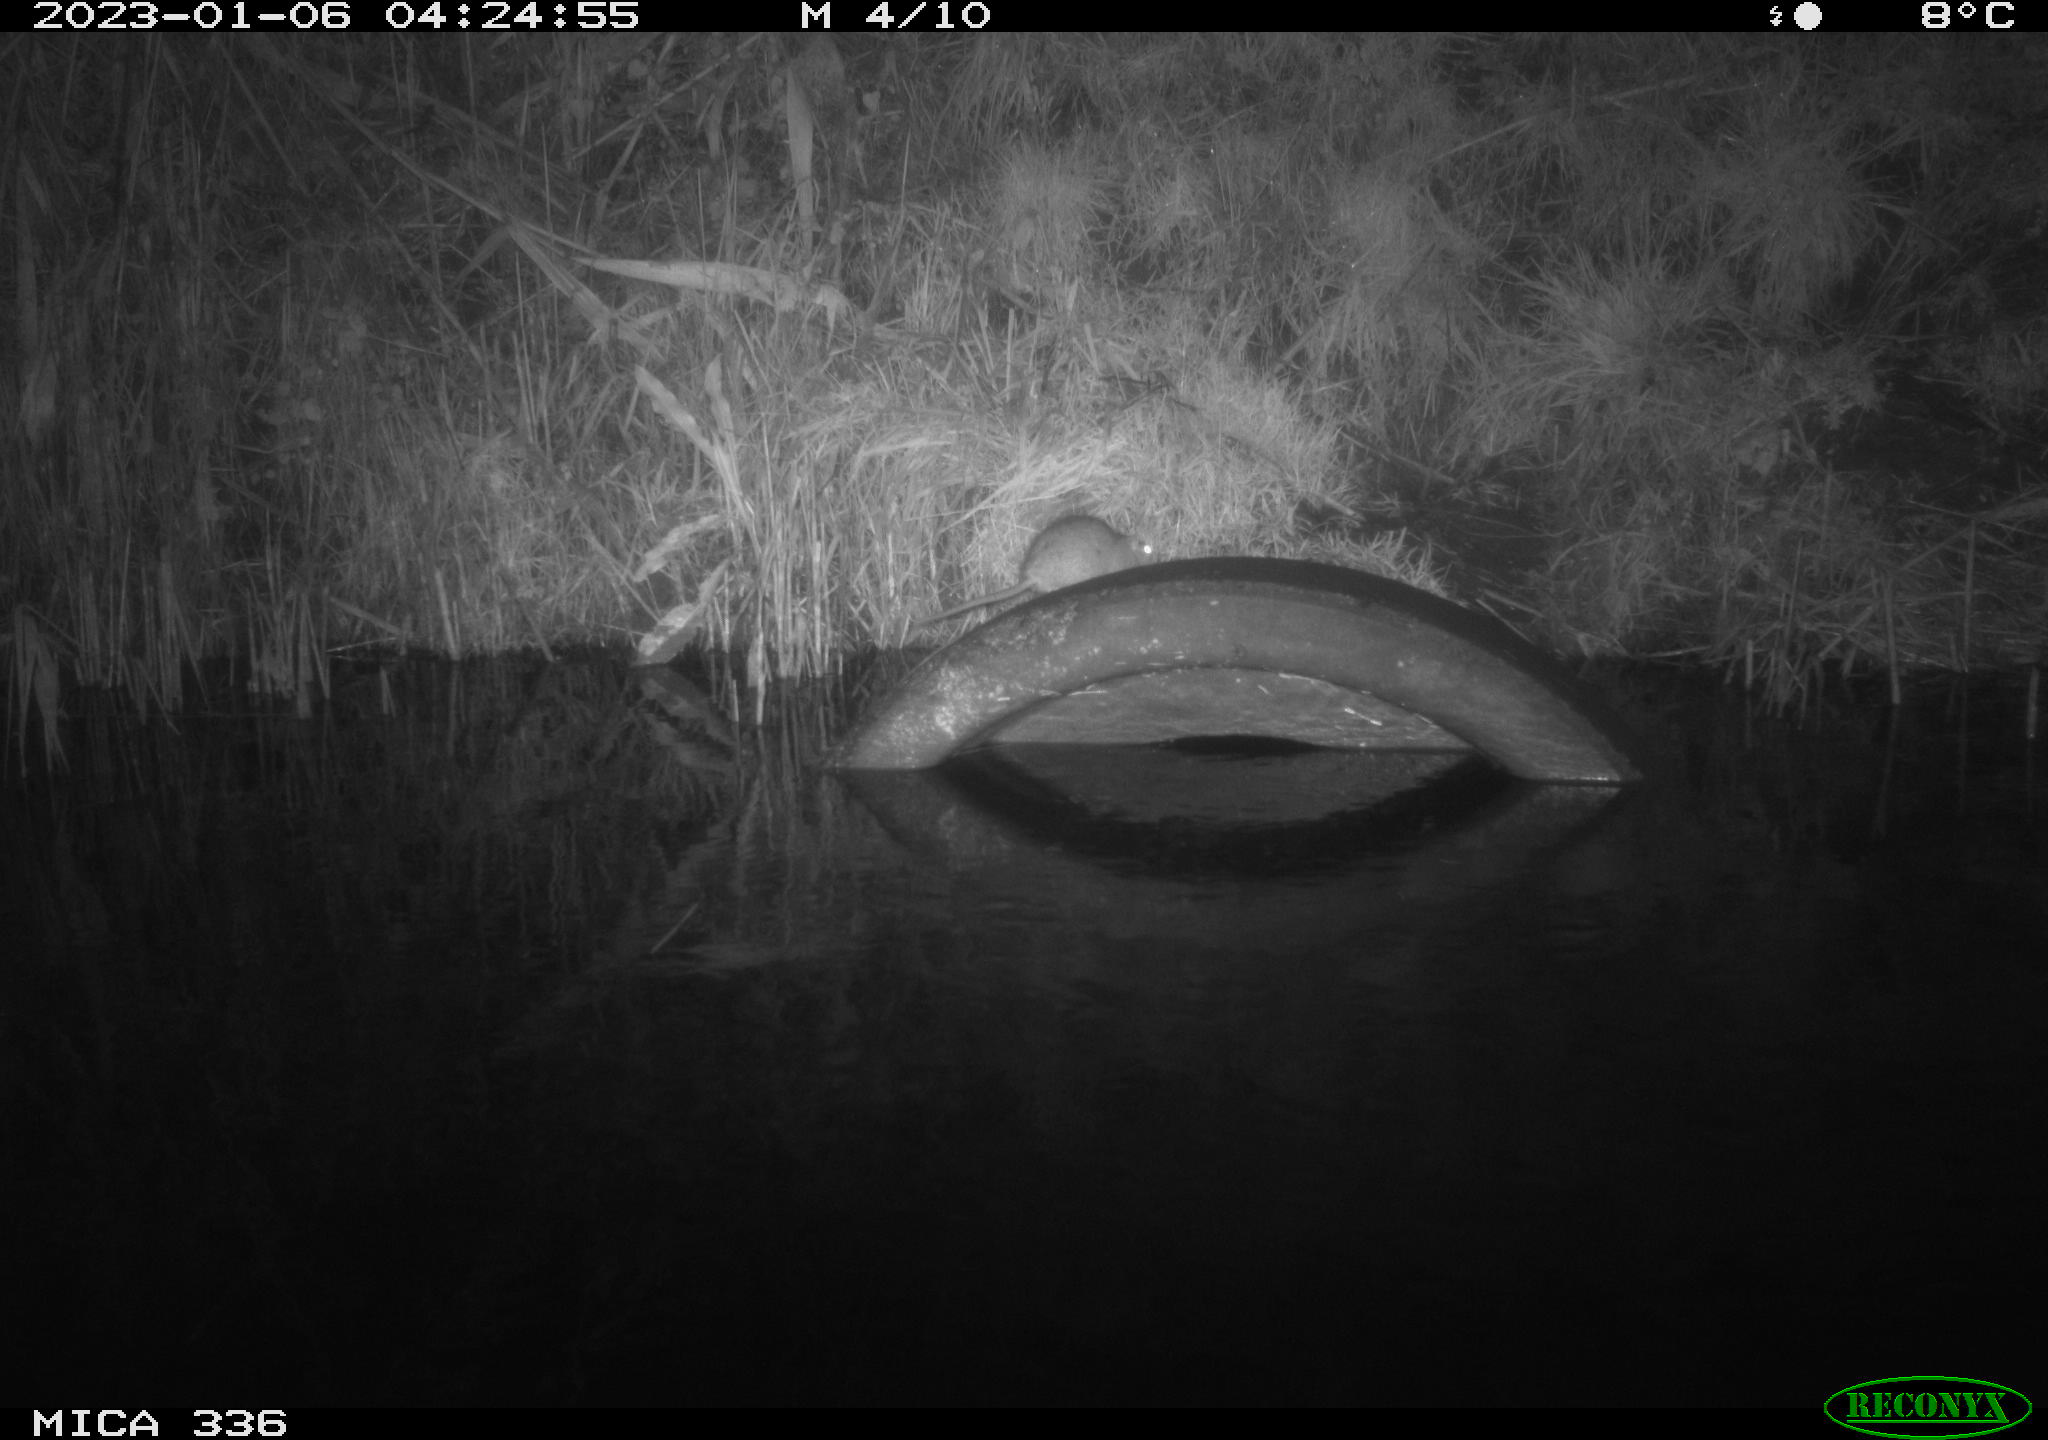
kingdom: Animalia
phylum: Chordata
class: Mammalia
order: Rodentia
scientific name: Rodentia
